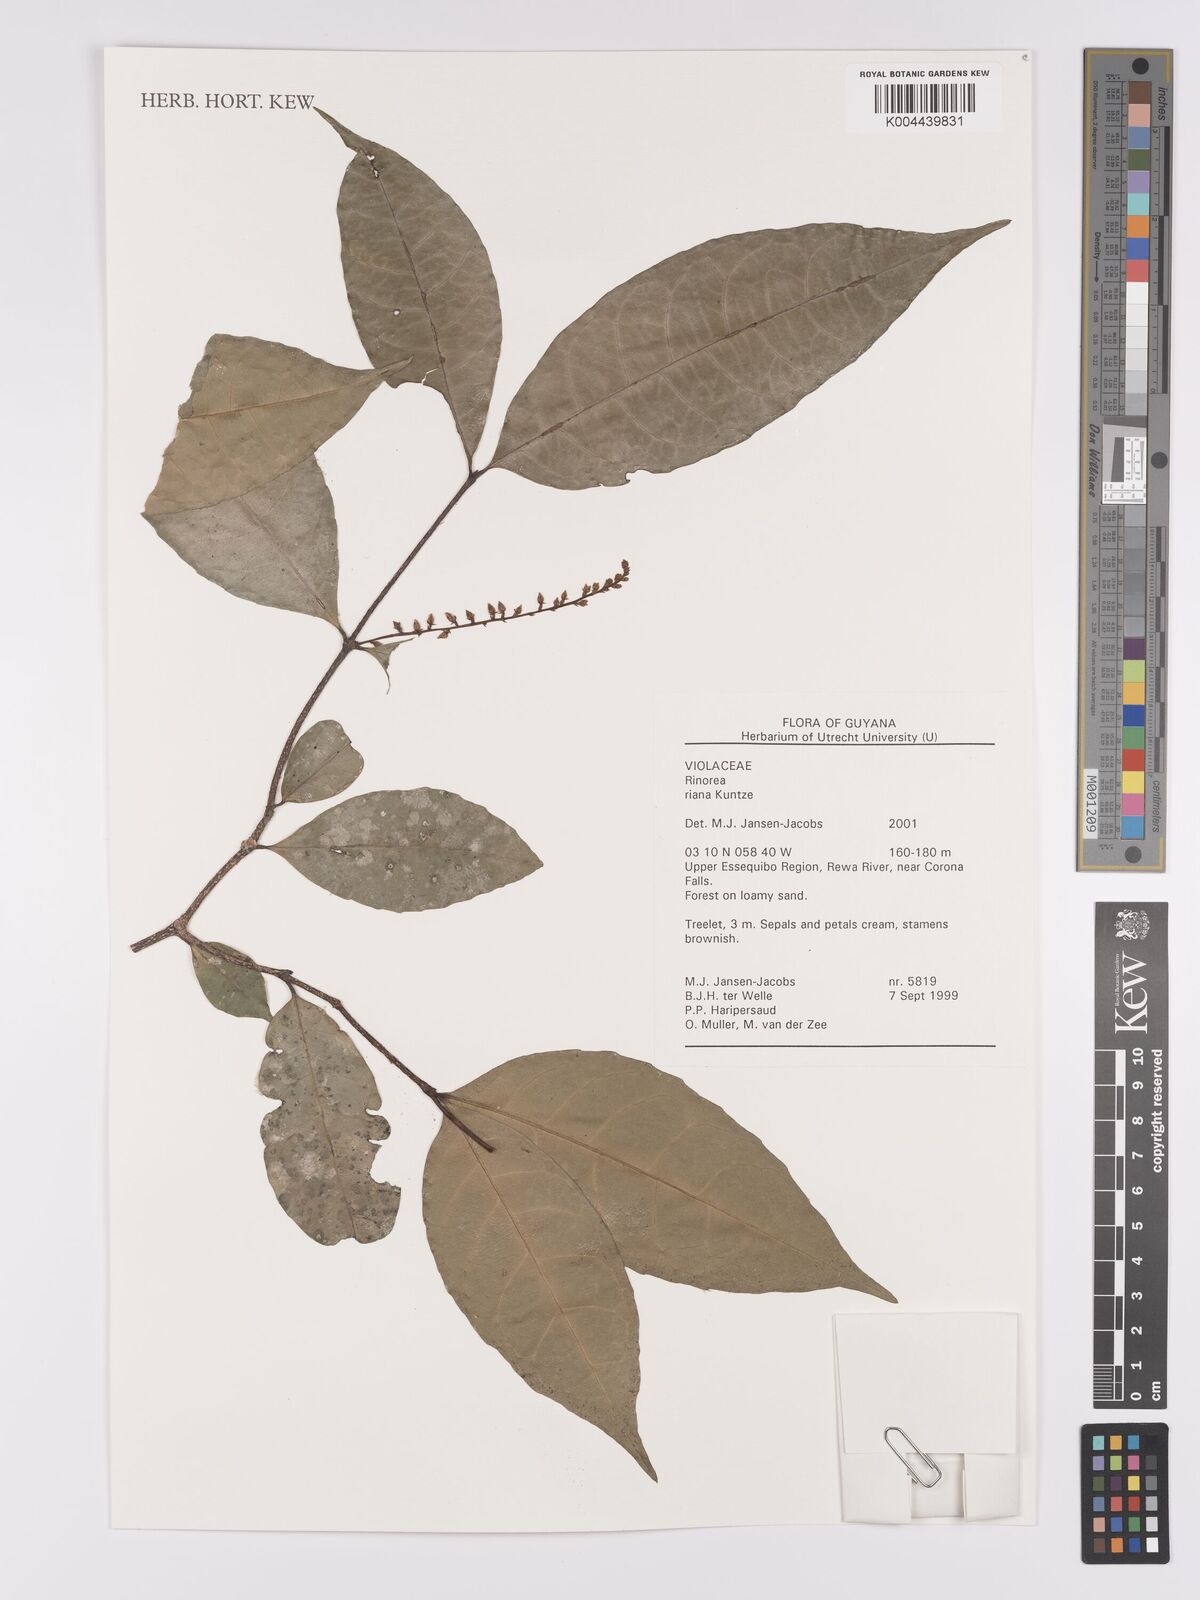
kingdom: Plantae
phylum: Tracheophyta
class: Magnoliopsida
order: Malpighiales
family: Violaceae
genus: Rinorea
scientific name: Rinorea riana
